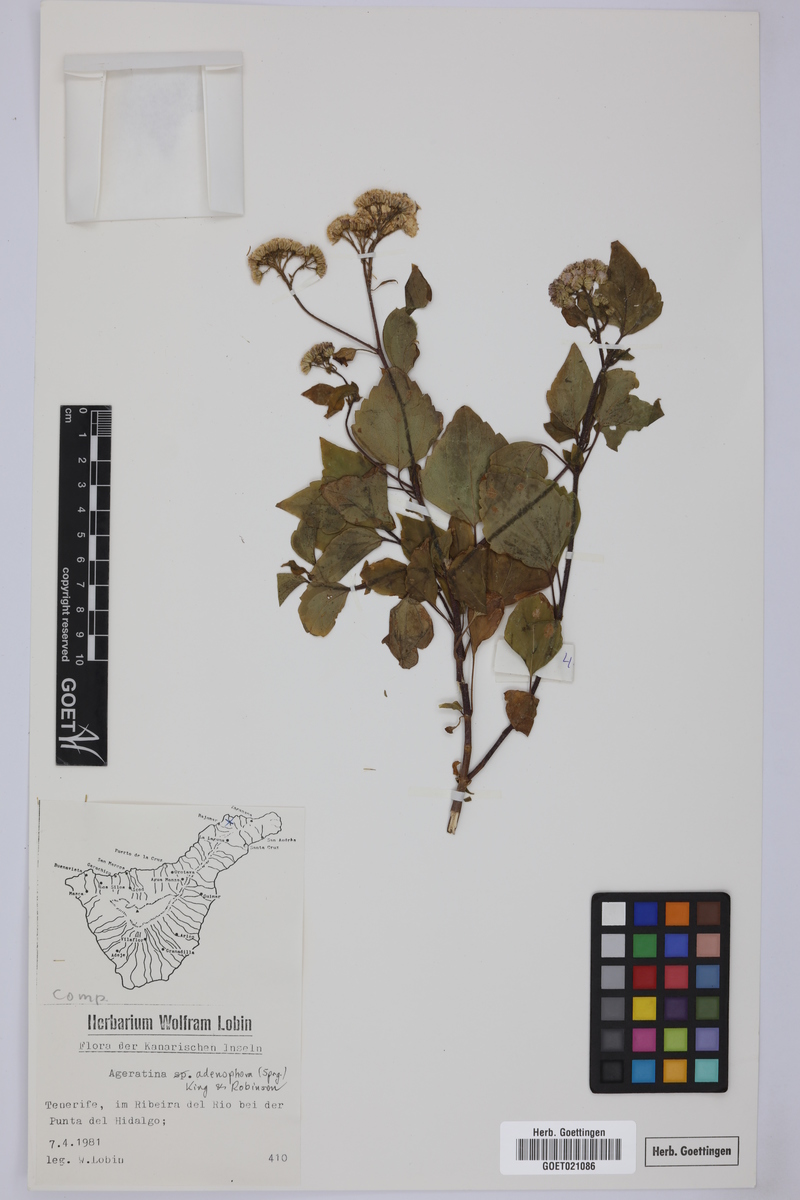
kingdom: Plantae
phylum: Tracheophyta
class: Magnoliopsida
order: Asterales
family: Asteraceae
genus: Ageratina
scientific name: Ageratina adenophora
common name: Sticky snakeroot
